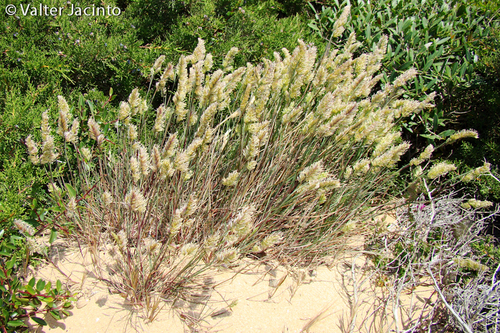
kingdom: Plantae
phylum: Tracheophyta
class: Liliopsida
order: Poales
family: Poaceae
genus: Dactylis
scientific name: Dactylis glomerata
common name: Orchardgrass
